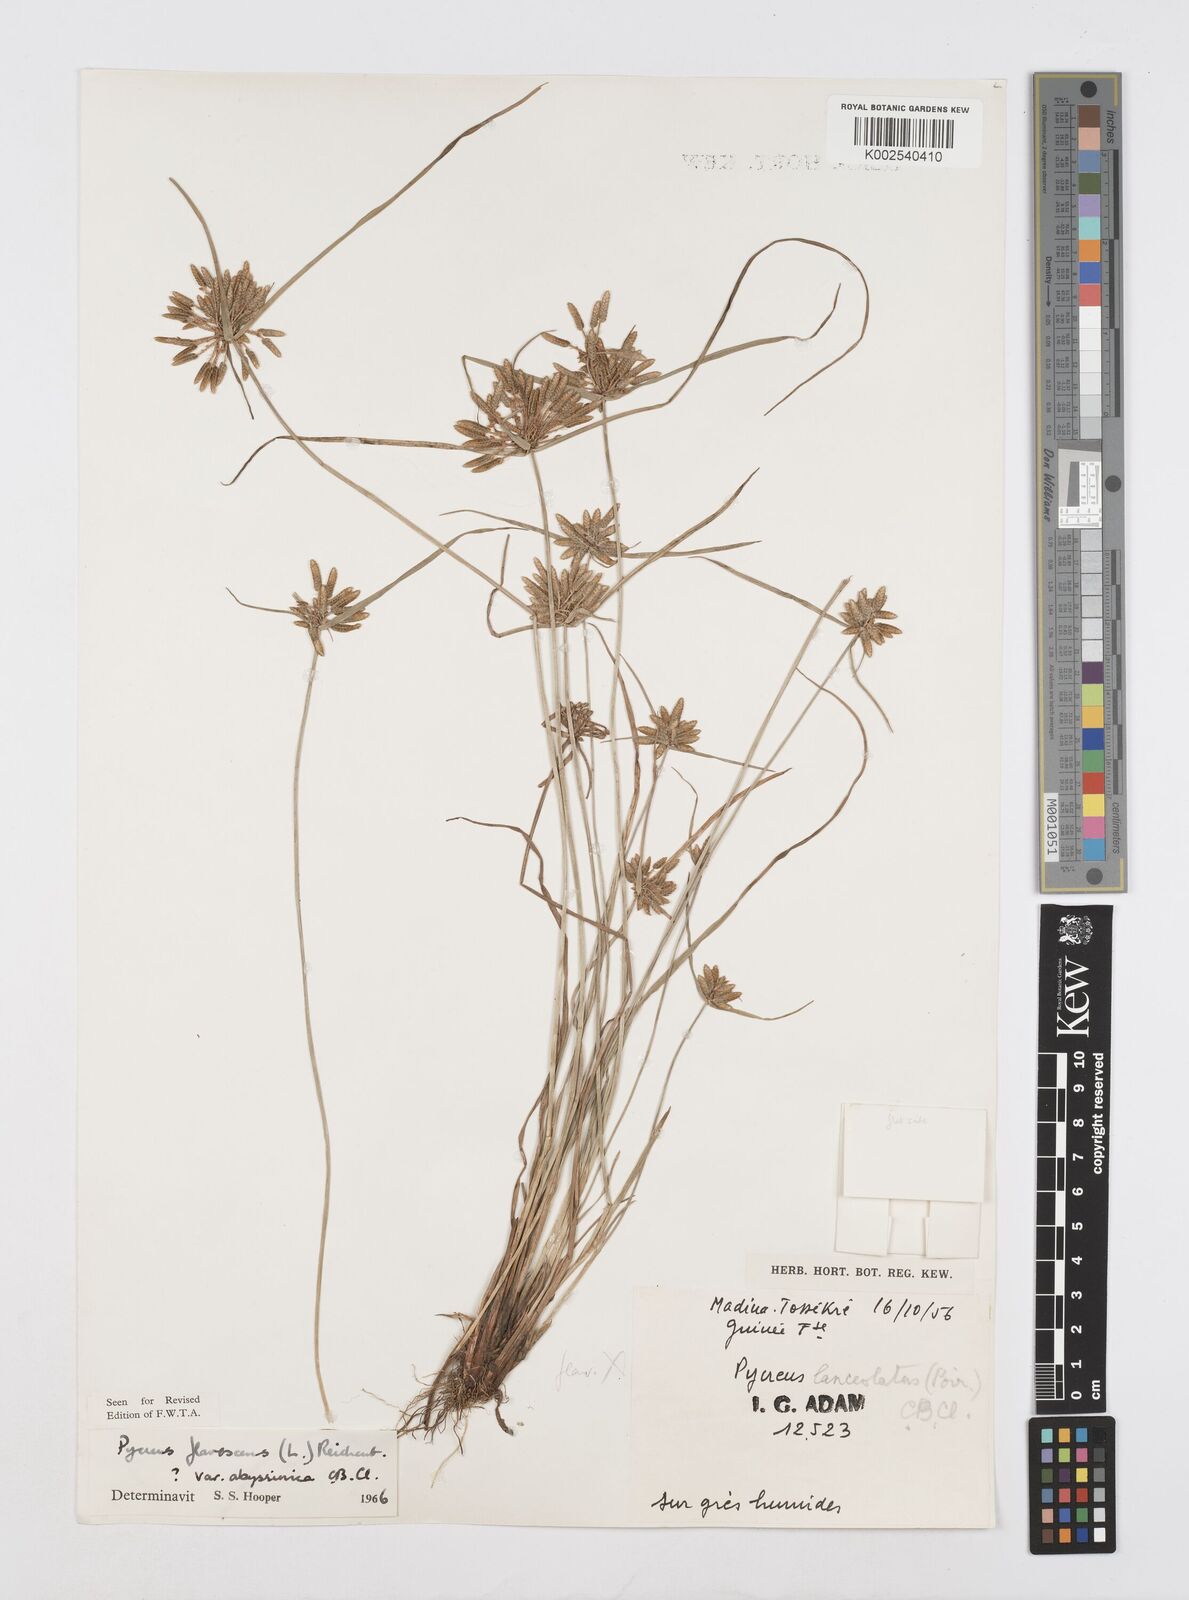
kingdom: Plantae
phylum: Tracheophyta
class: Liliopsida
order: Poales
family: Cyperaceae
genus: Cyperus
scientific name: Cyperus flavescens
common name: Yellow galingale
